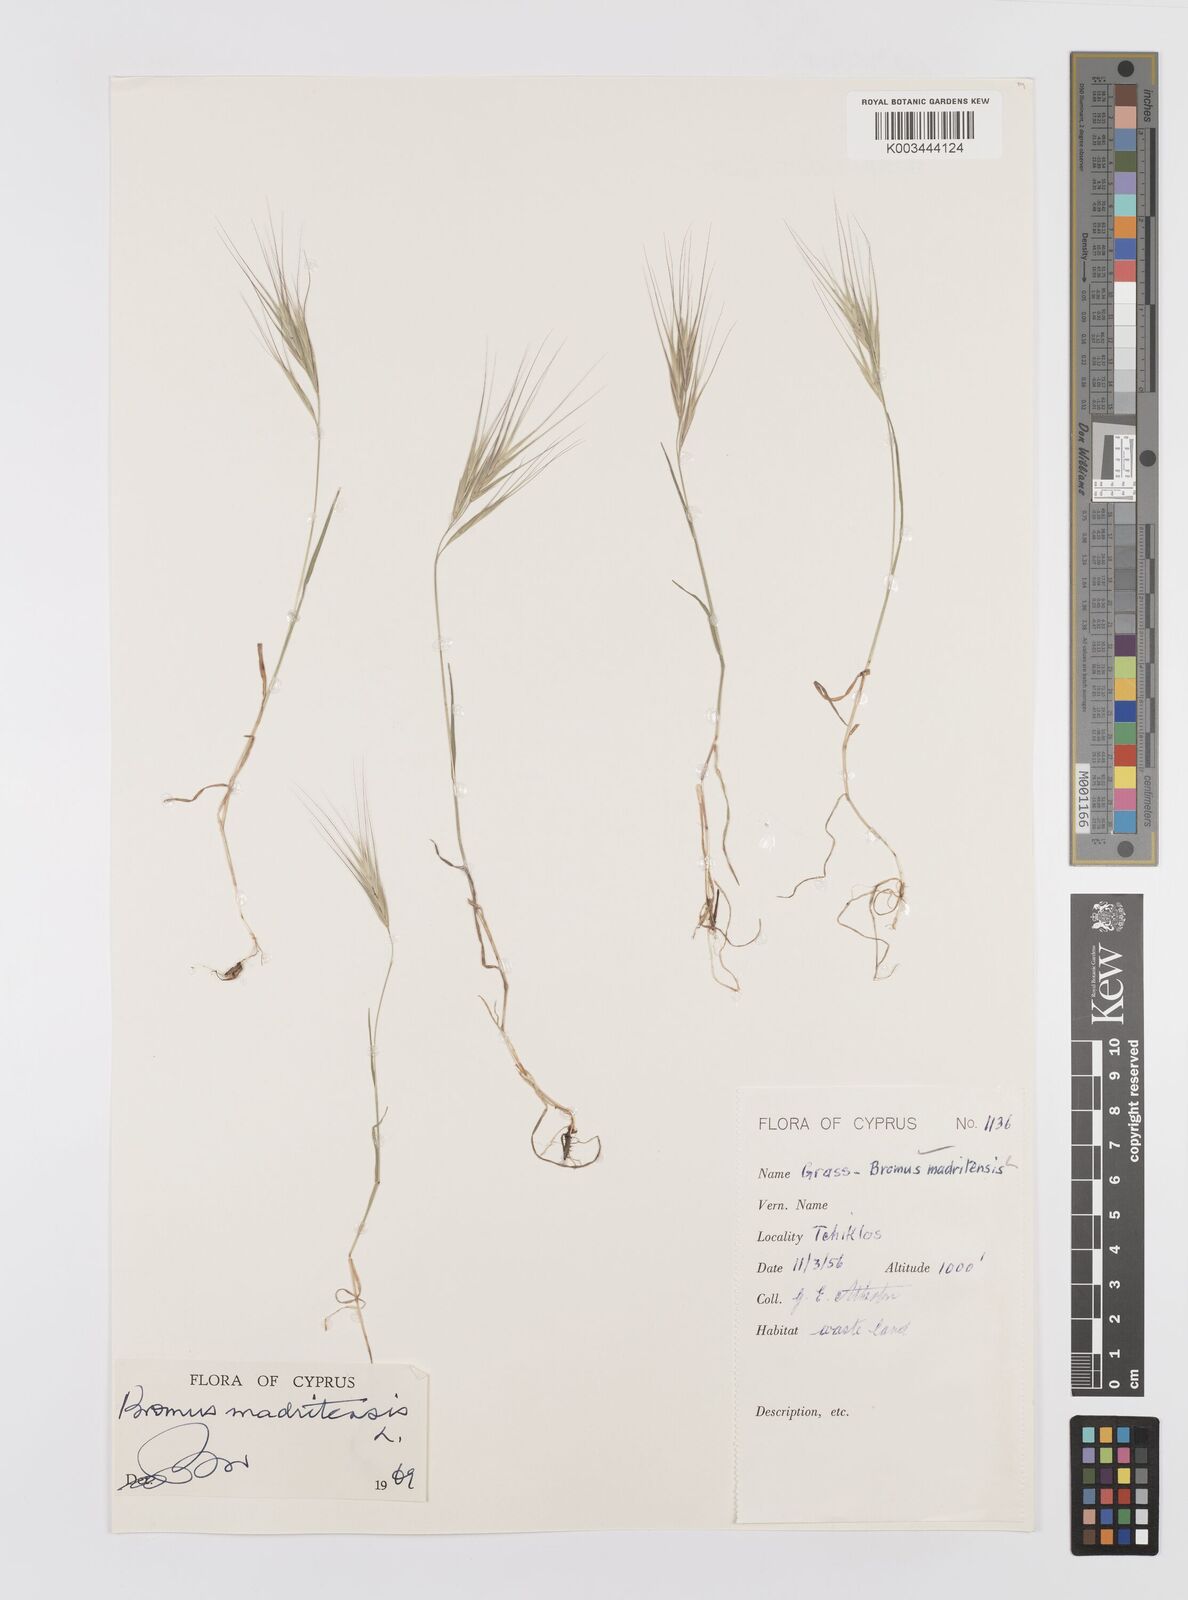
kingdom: Plantae
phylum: Tracheophyta
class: Liliopsida
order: Poales
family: Poaceae
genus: Bromus
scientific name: Bromus madritensis
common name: Compact brome
